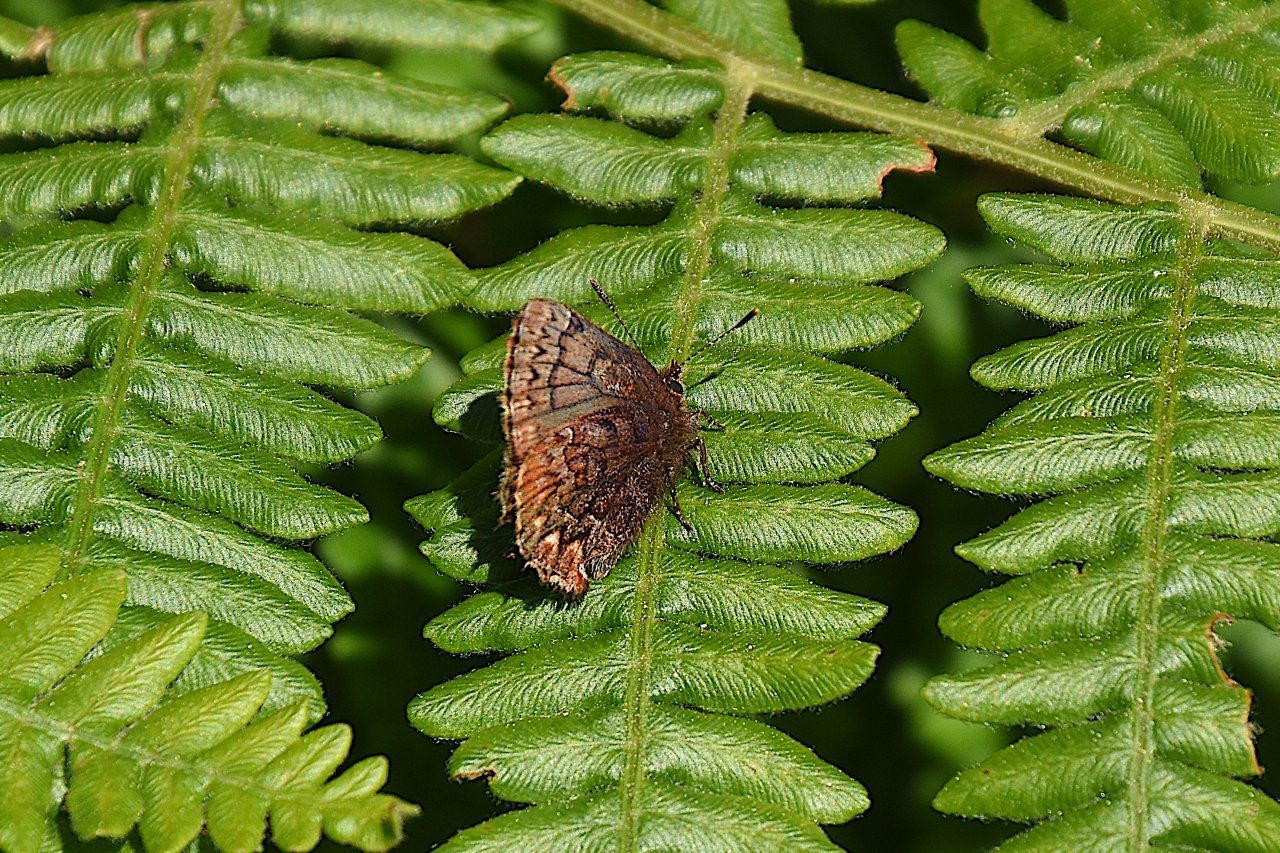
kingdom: Animalia
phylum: Arthropoda
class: Insecta
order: Lepidoptera
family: Lycaenidae
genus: Incisalia
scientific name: Incisalia eryphon
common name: Western Pine Elfin
